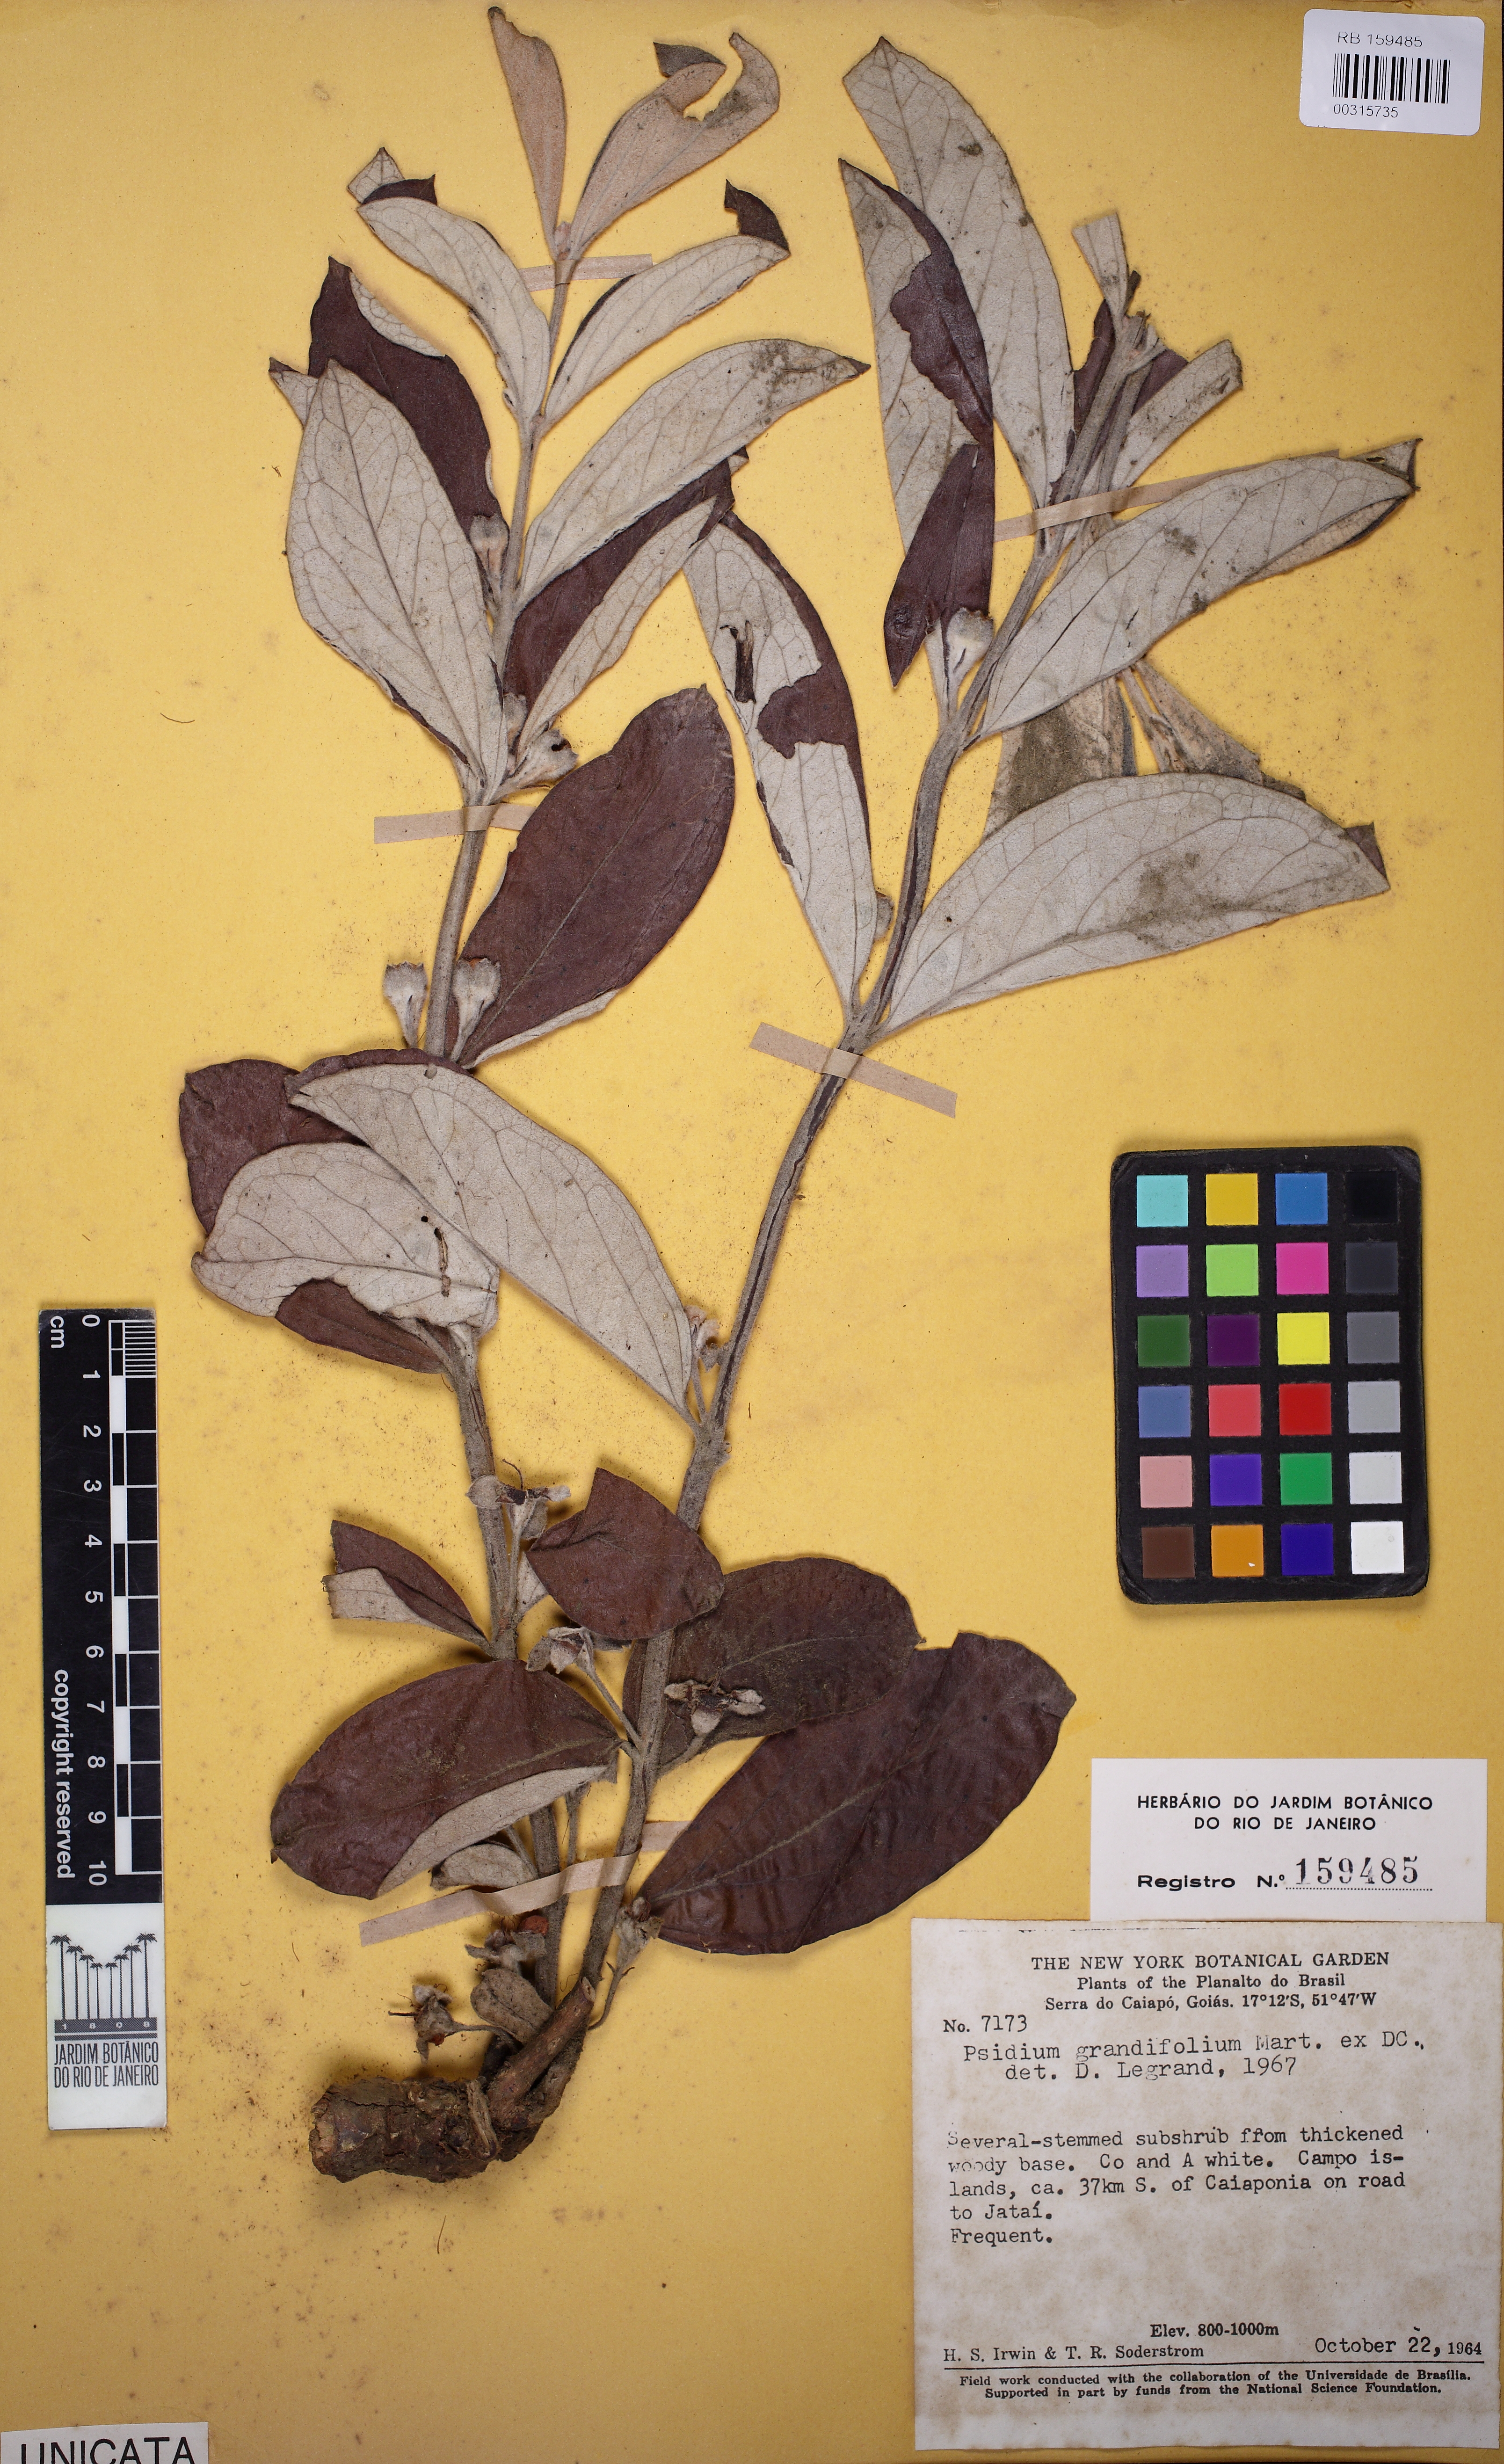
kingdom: Plantae
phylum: Tracheophyta
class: Magnoliopsida
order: Myrtales
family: Myrtaceae
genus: Psidium
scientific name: Psidium grandifolium
